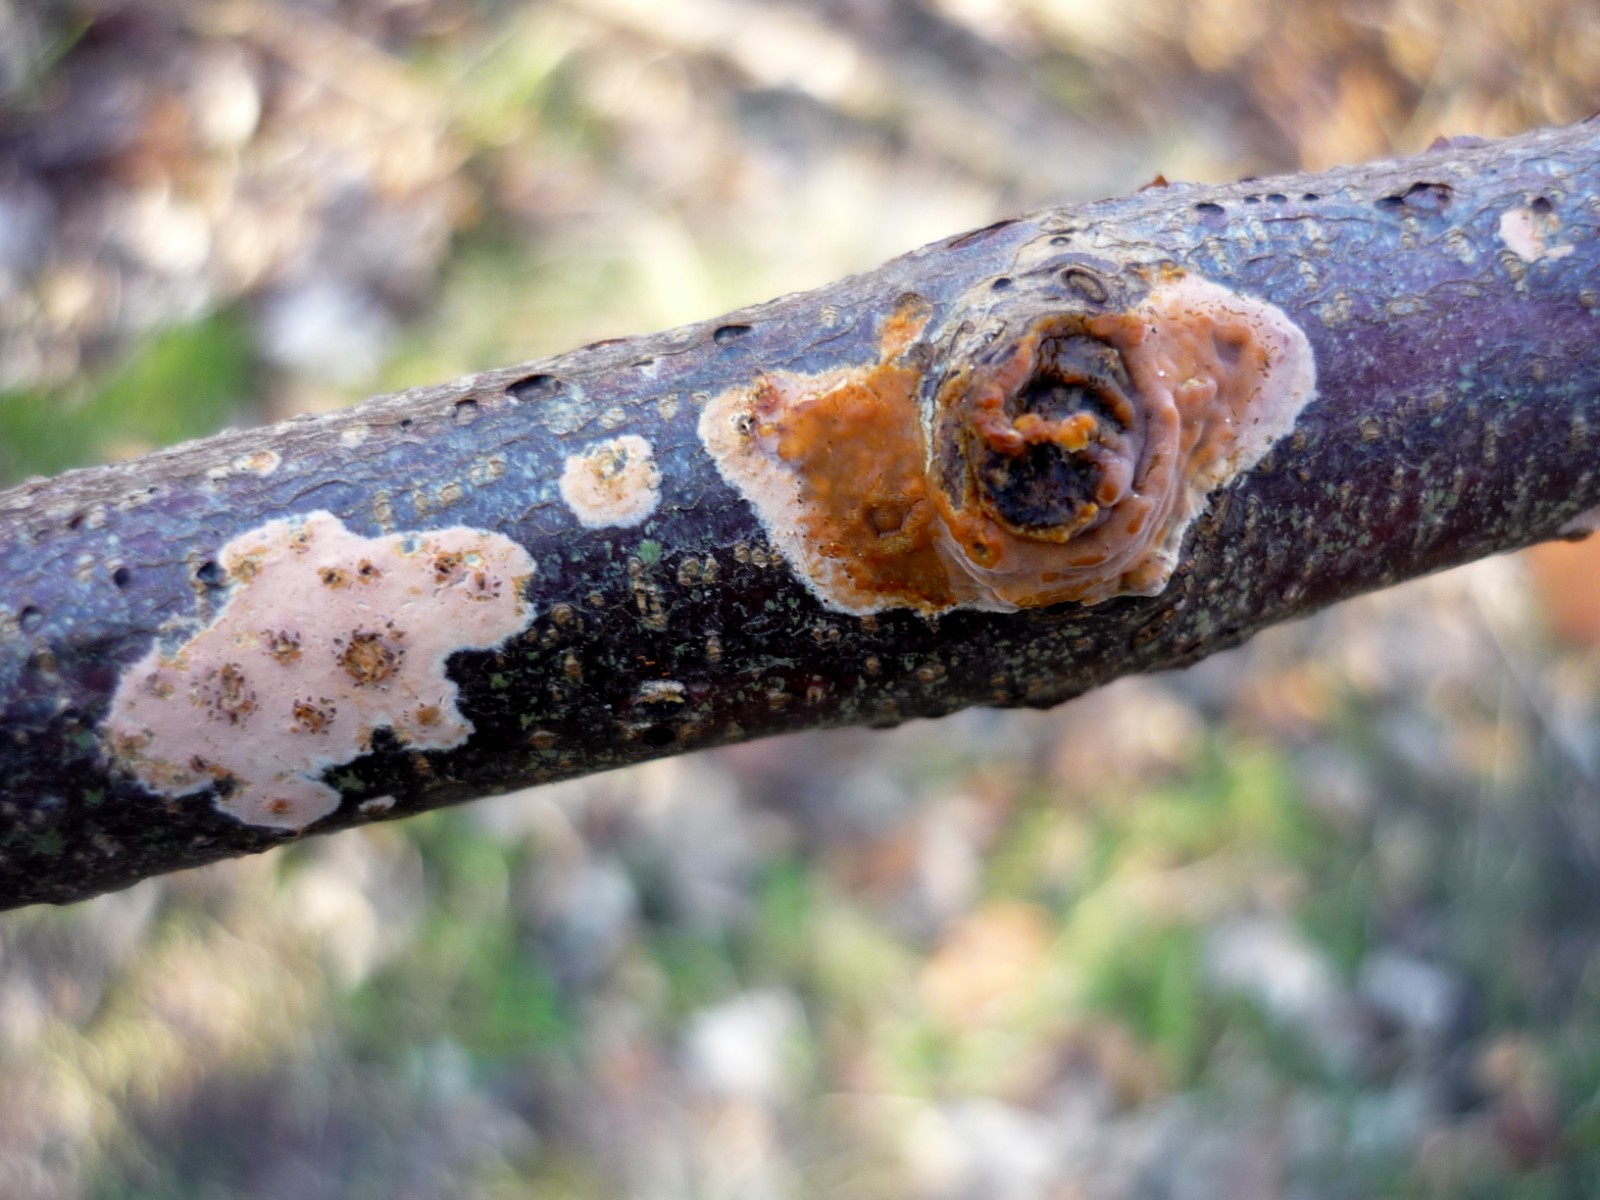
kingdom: Fungi
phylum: Basidiomycota
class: Agaricomycetes
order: Russulales
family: Peniophoraceae
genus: Peniophora
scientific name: Peniophora incarnata
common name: laksefarvet voksskind
